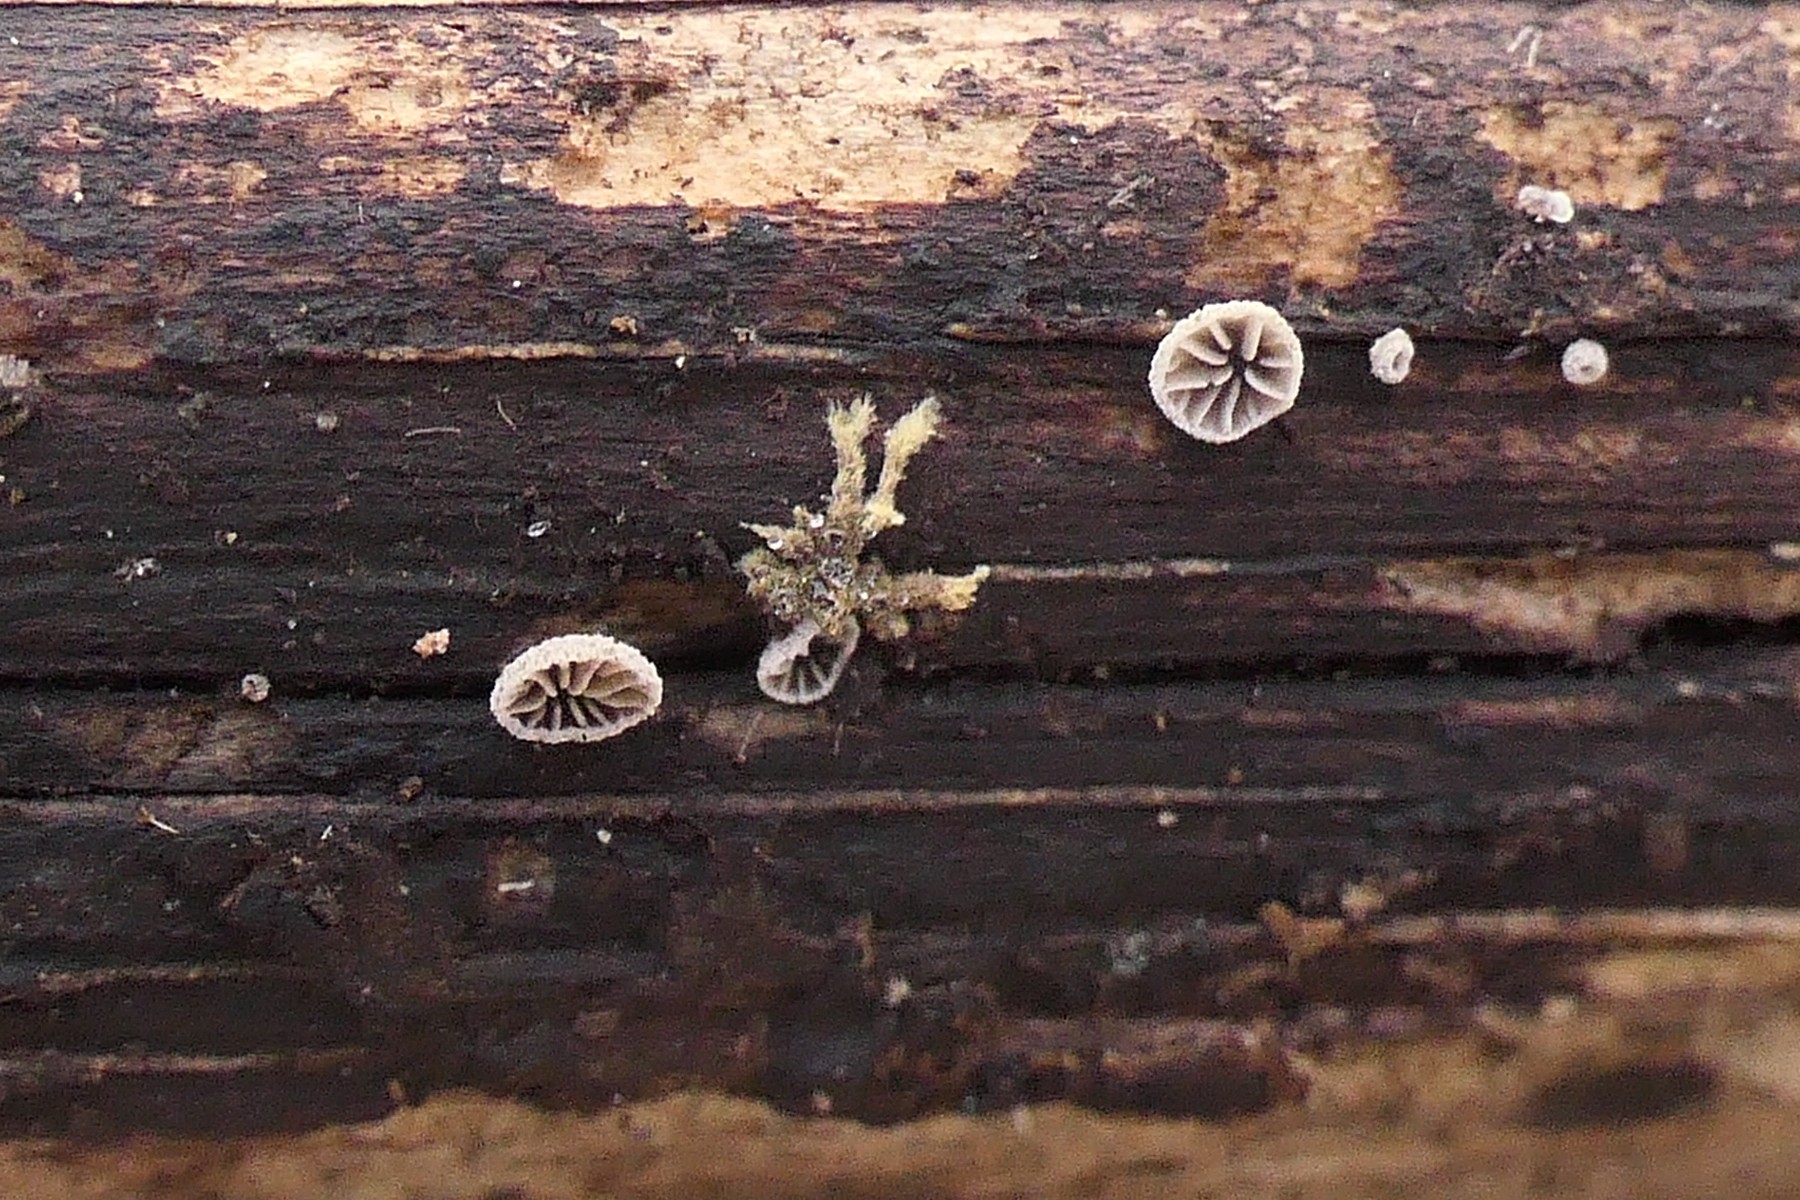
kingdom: Fungi
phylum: Basidiomycota
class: Agaricomycetes
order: Agaricales
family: Pleurotaceae
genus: Resupinatus
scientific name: Resupinatus trichotis
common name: mørkfiltet barkhat
